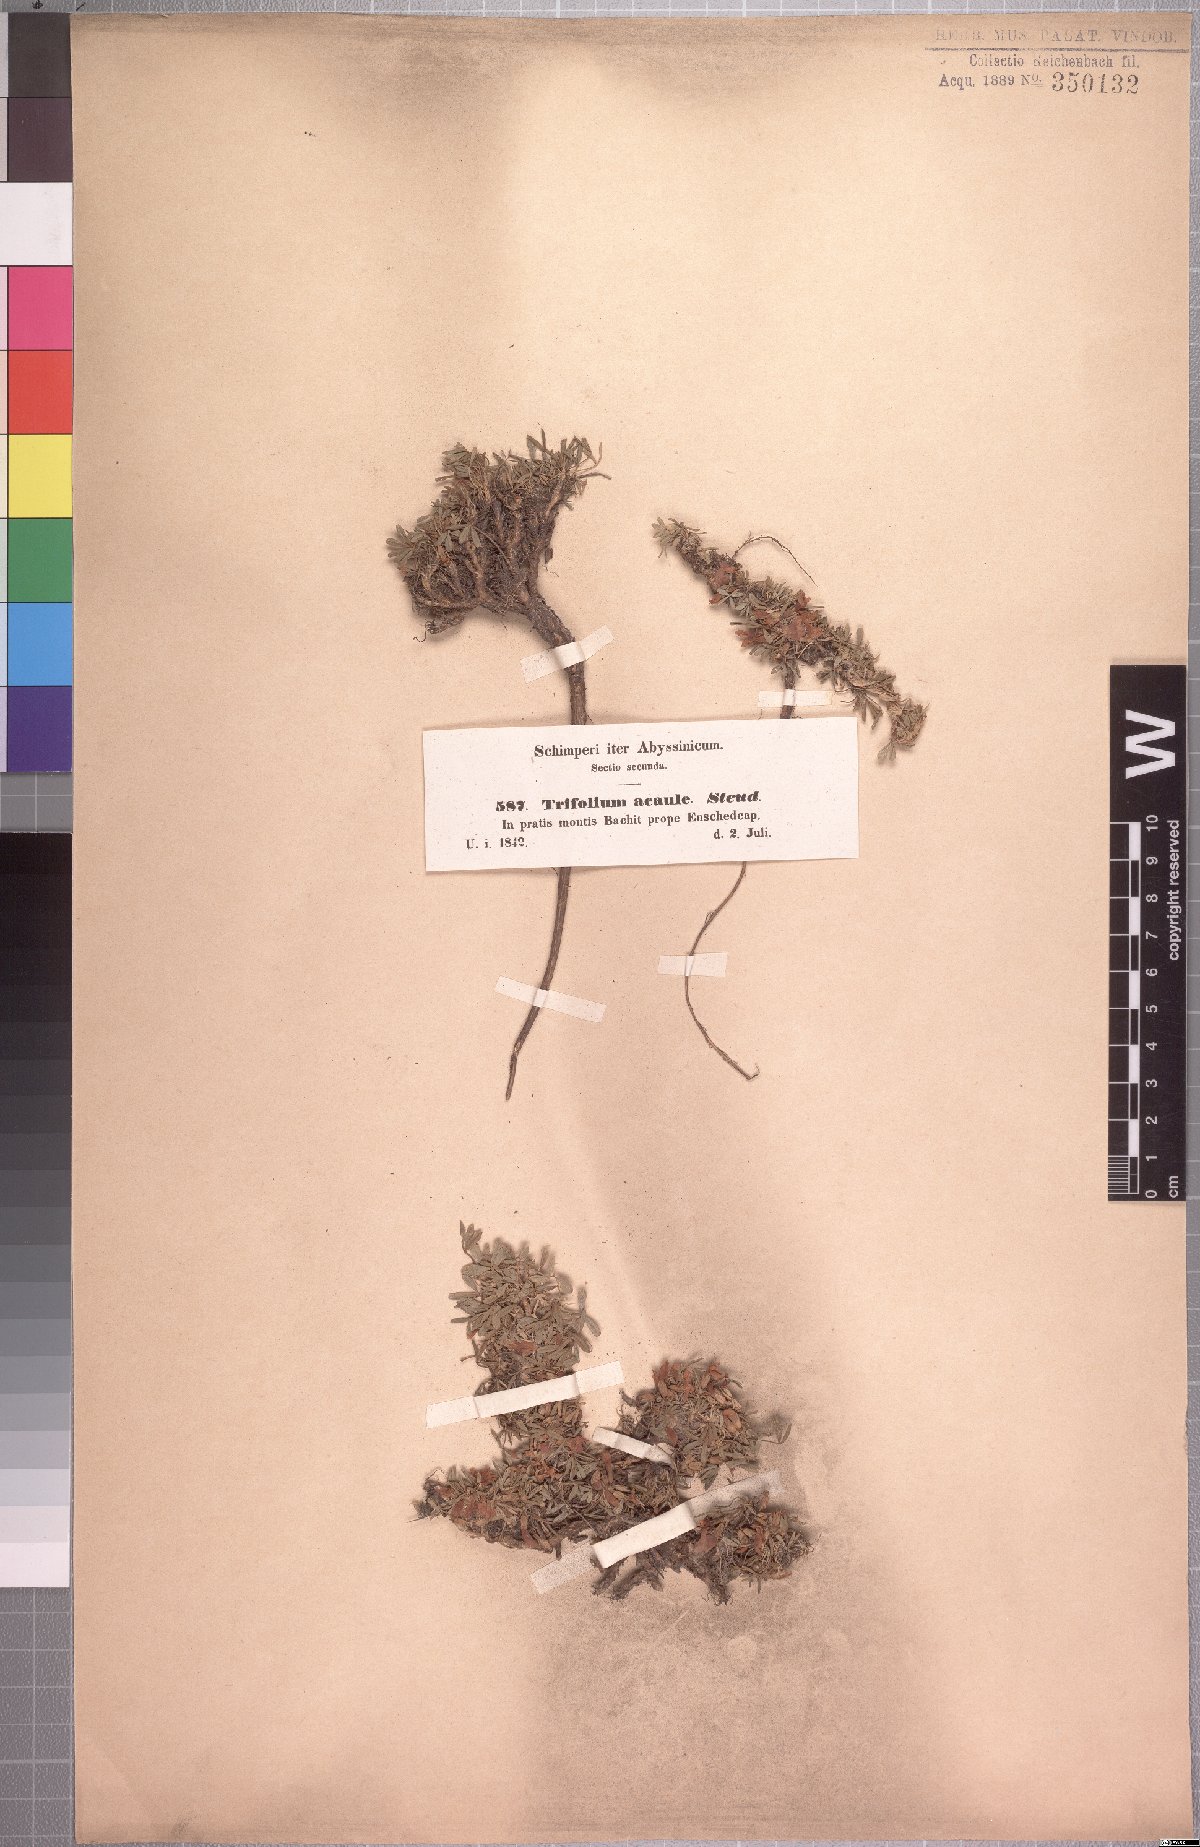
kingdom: Plantae
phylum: Tracheophyta
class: Magnoliopsida
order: Fabales
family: Fabaceae
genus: Trifolium
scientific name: Trifolium acaule
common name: Stemless clover
